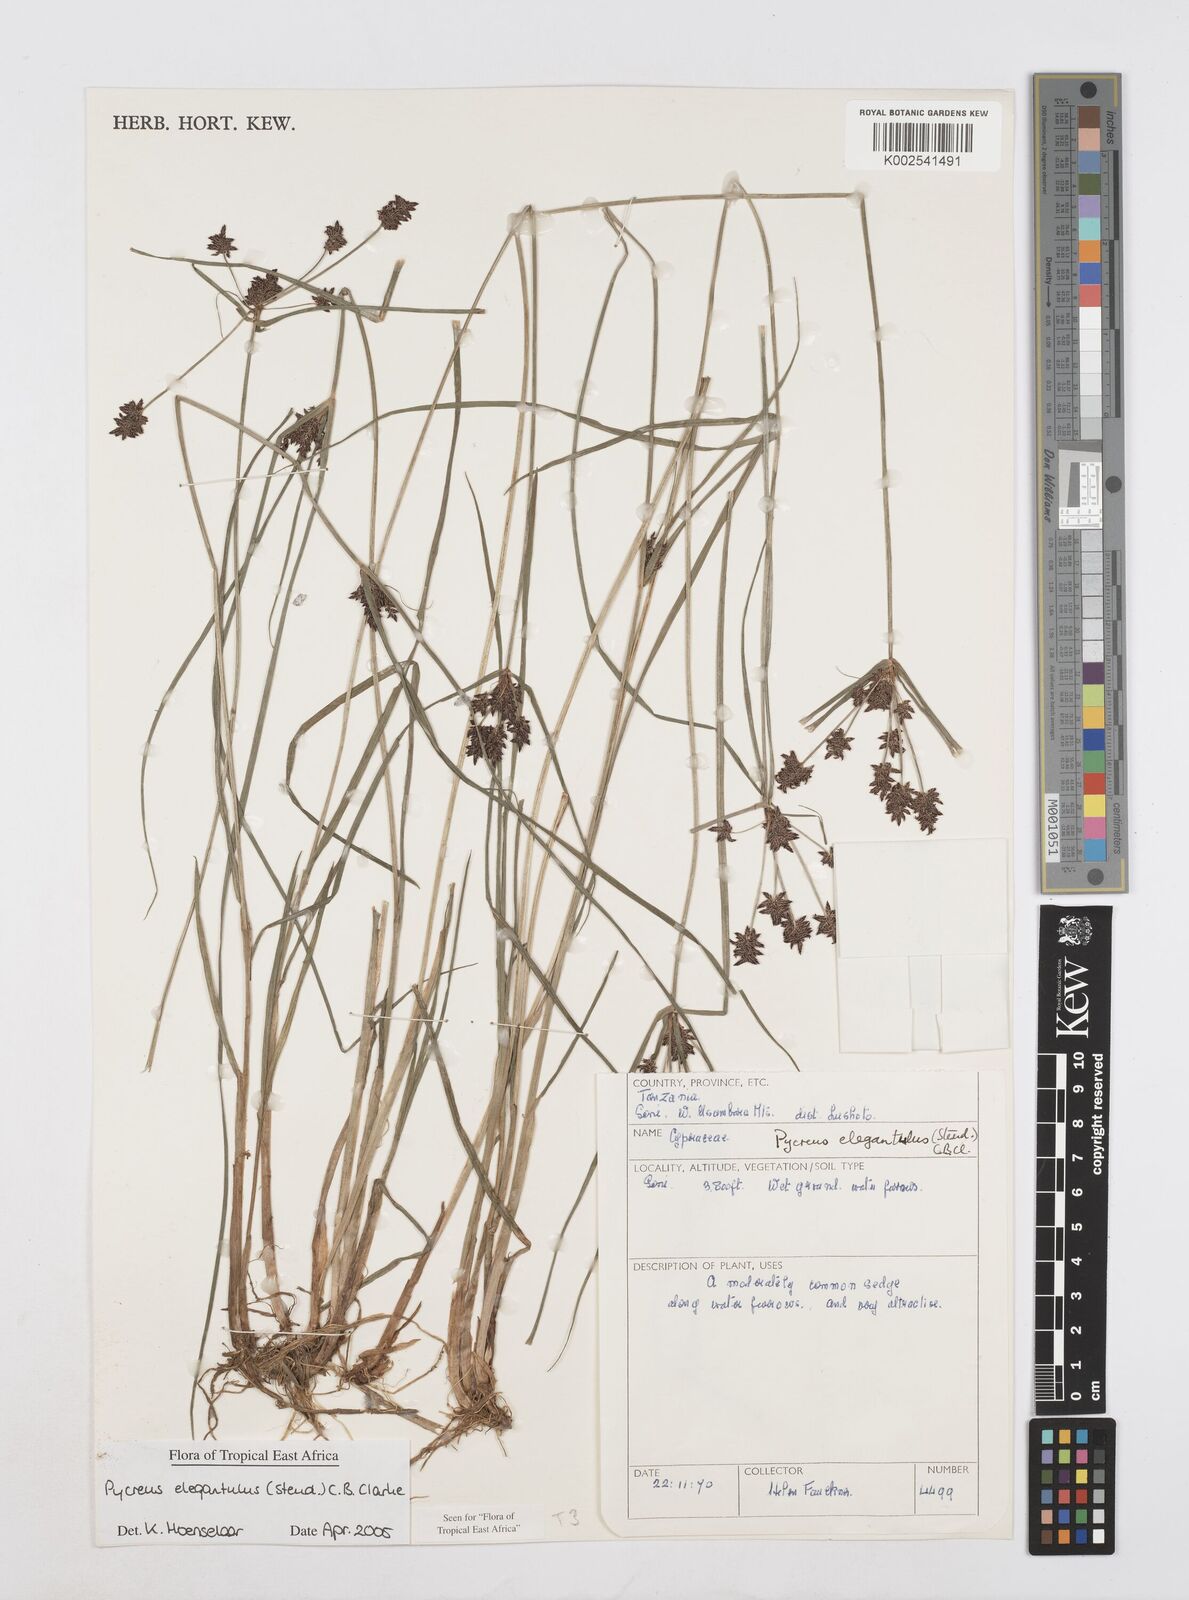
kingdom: Plantae
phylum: Tracheophyta
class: Liliopsida
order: Poales
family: Cyperaceae
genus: Cyperus
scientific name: Cyperus elegantulus
